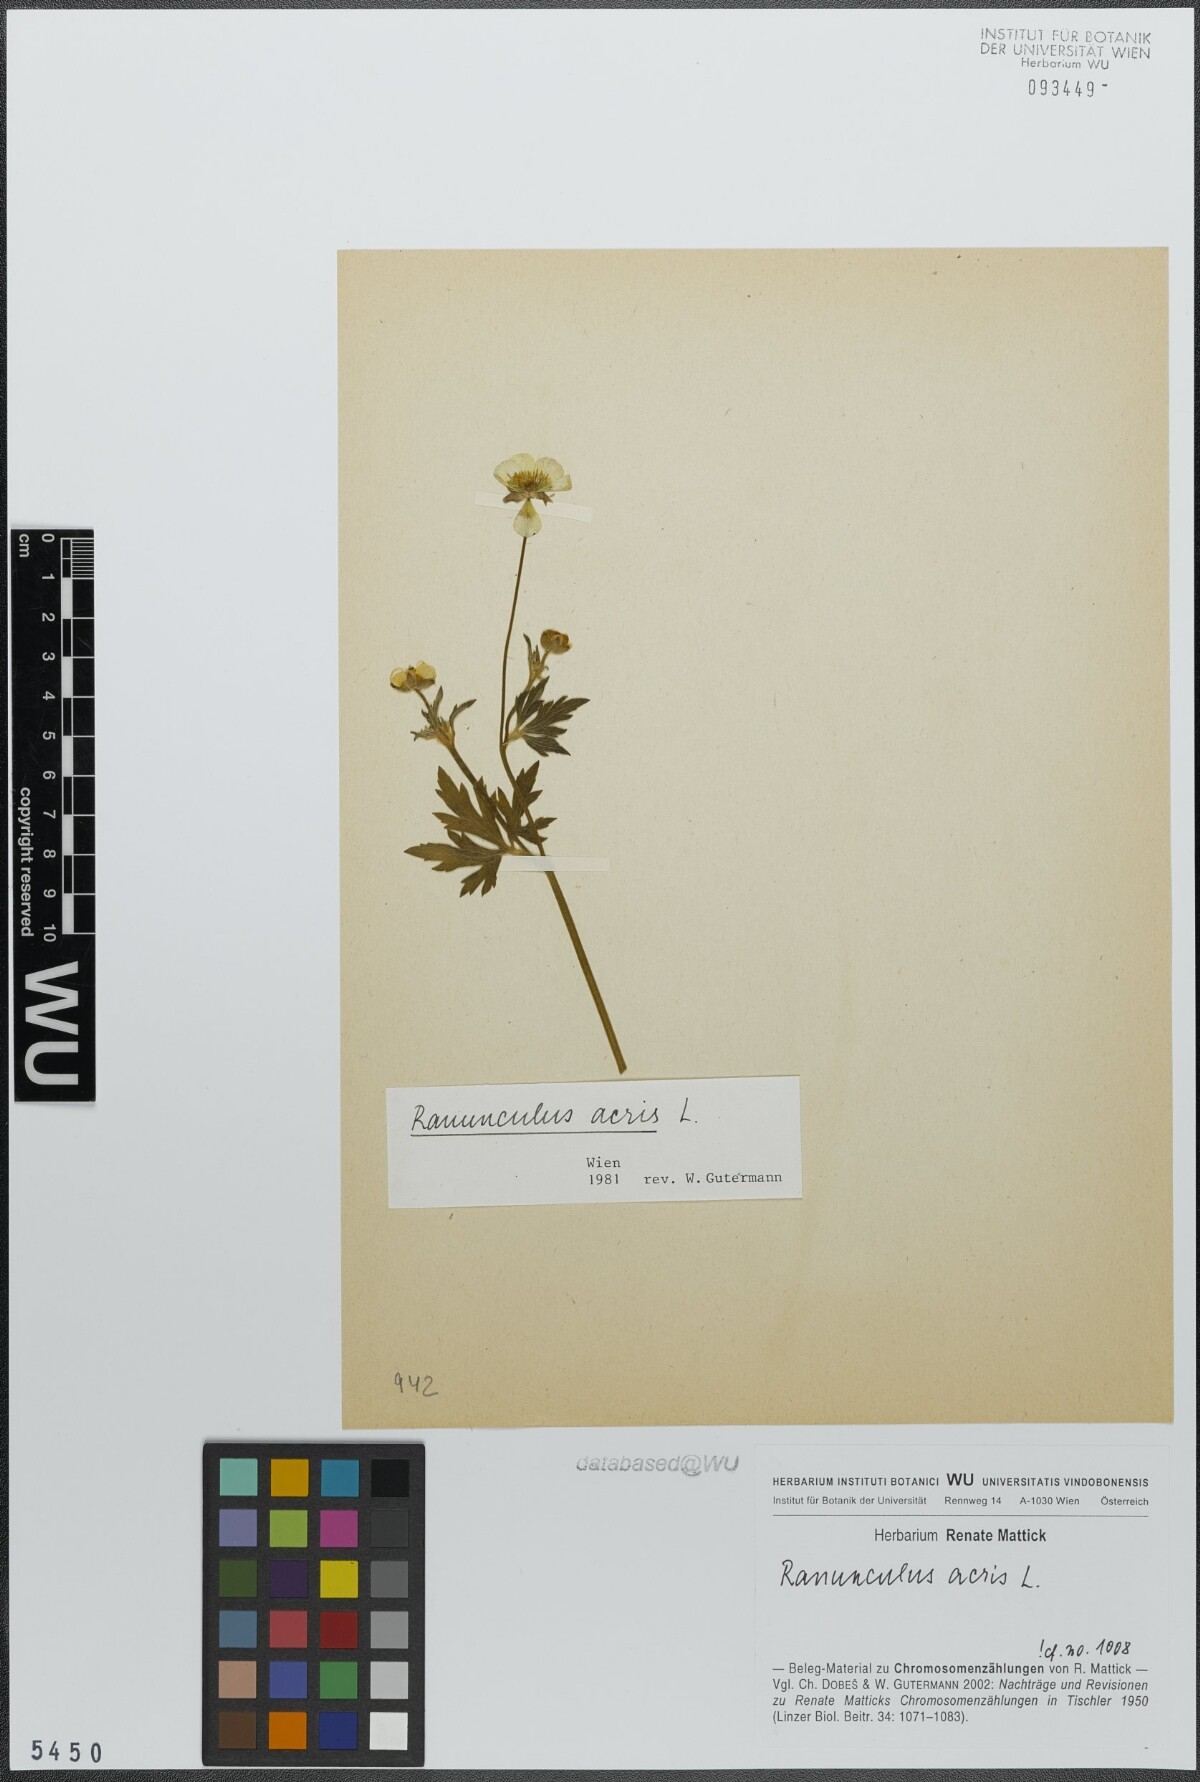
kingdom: Plantae
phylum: Tracheophyta
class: Magnoliopsida
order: Ranunculales
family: Ranunculaceae
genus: Ranunculus
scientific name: Ranunculus acris
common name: Meadow buttercup
